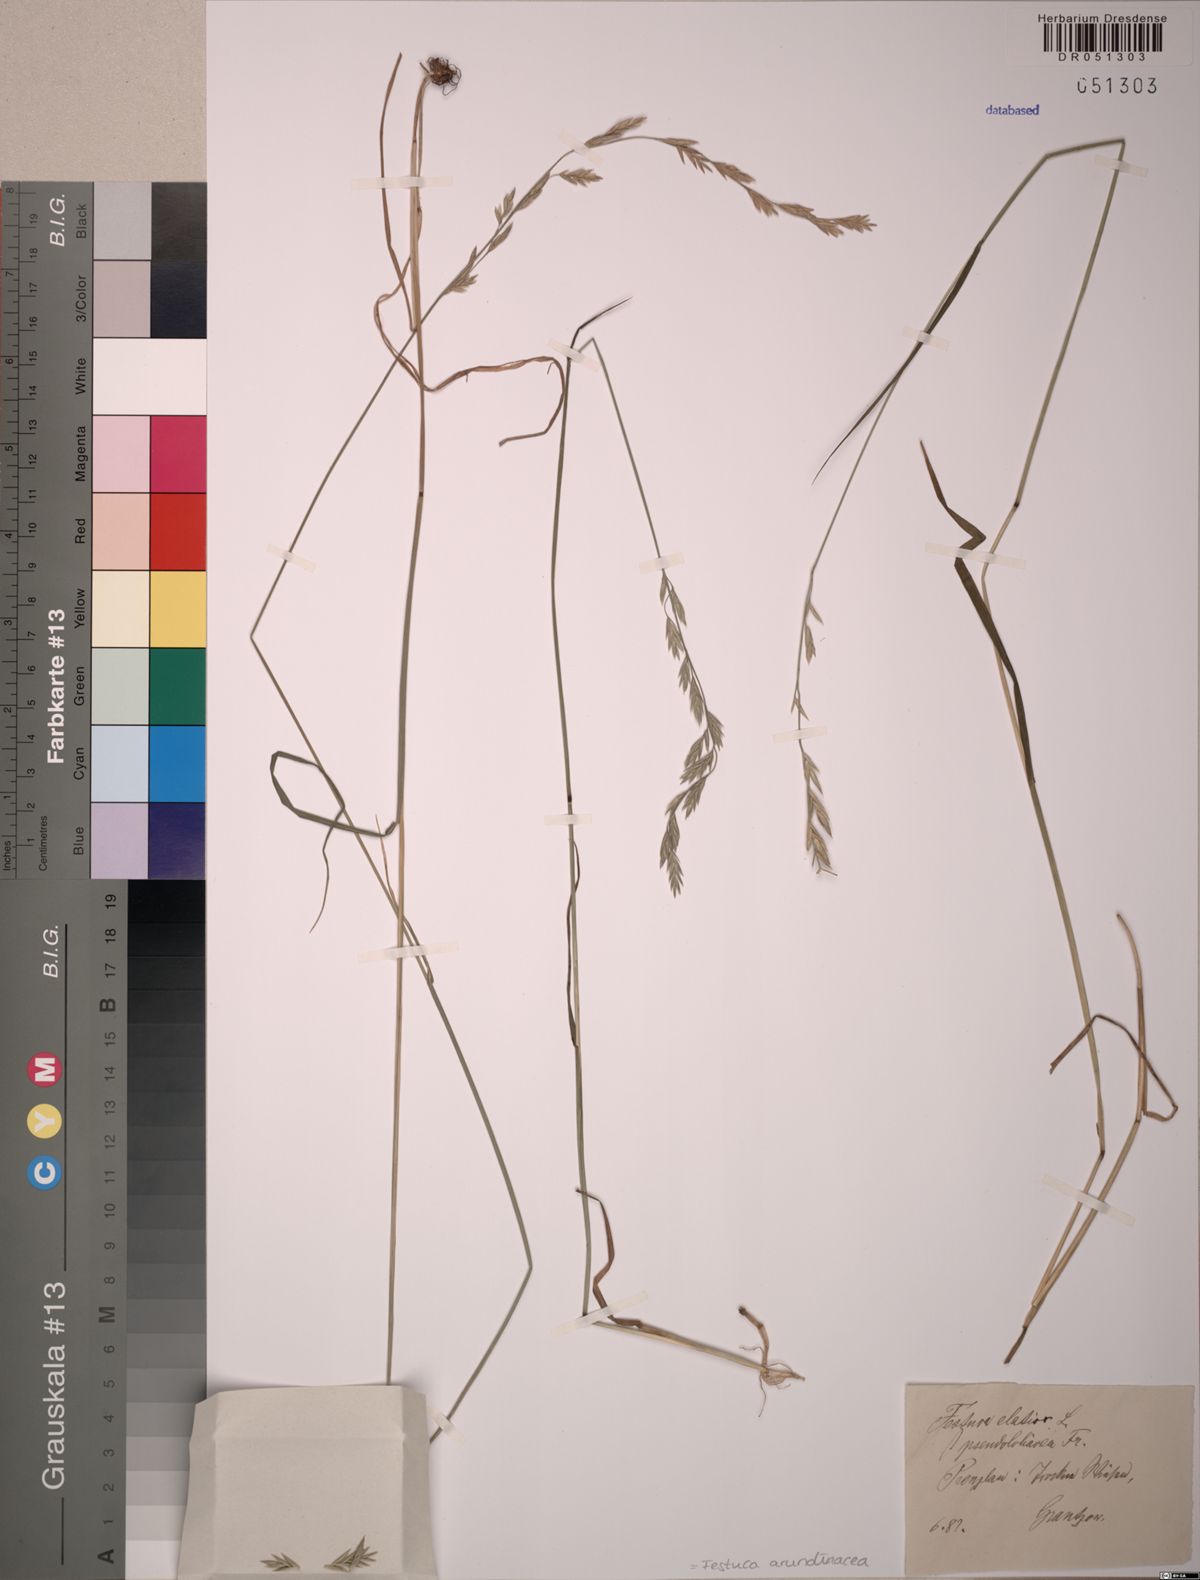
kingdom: Plantae
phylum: Tracheophyta
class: Liliopsida
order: Poales
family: Poaceae
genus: Lolium
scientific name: Lolium arundinaceum
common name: Reed fescue
